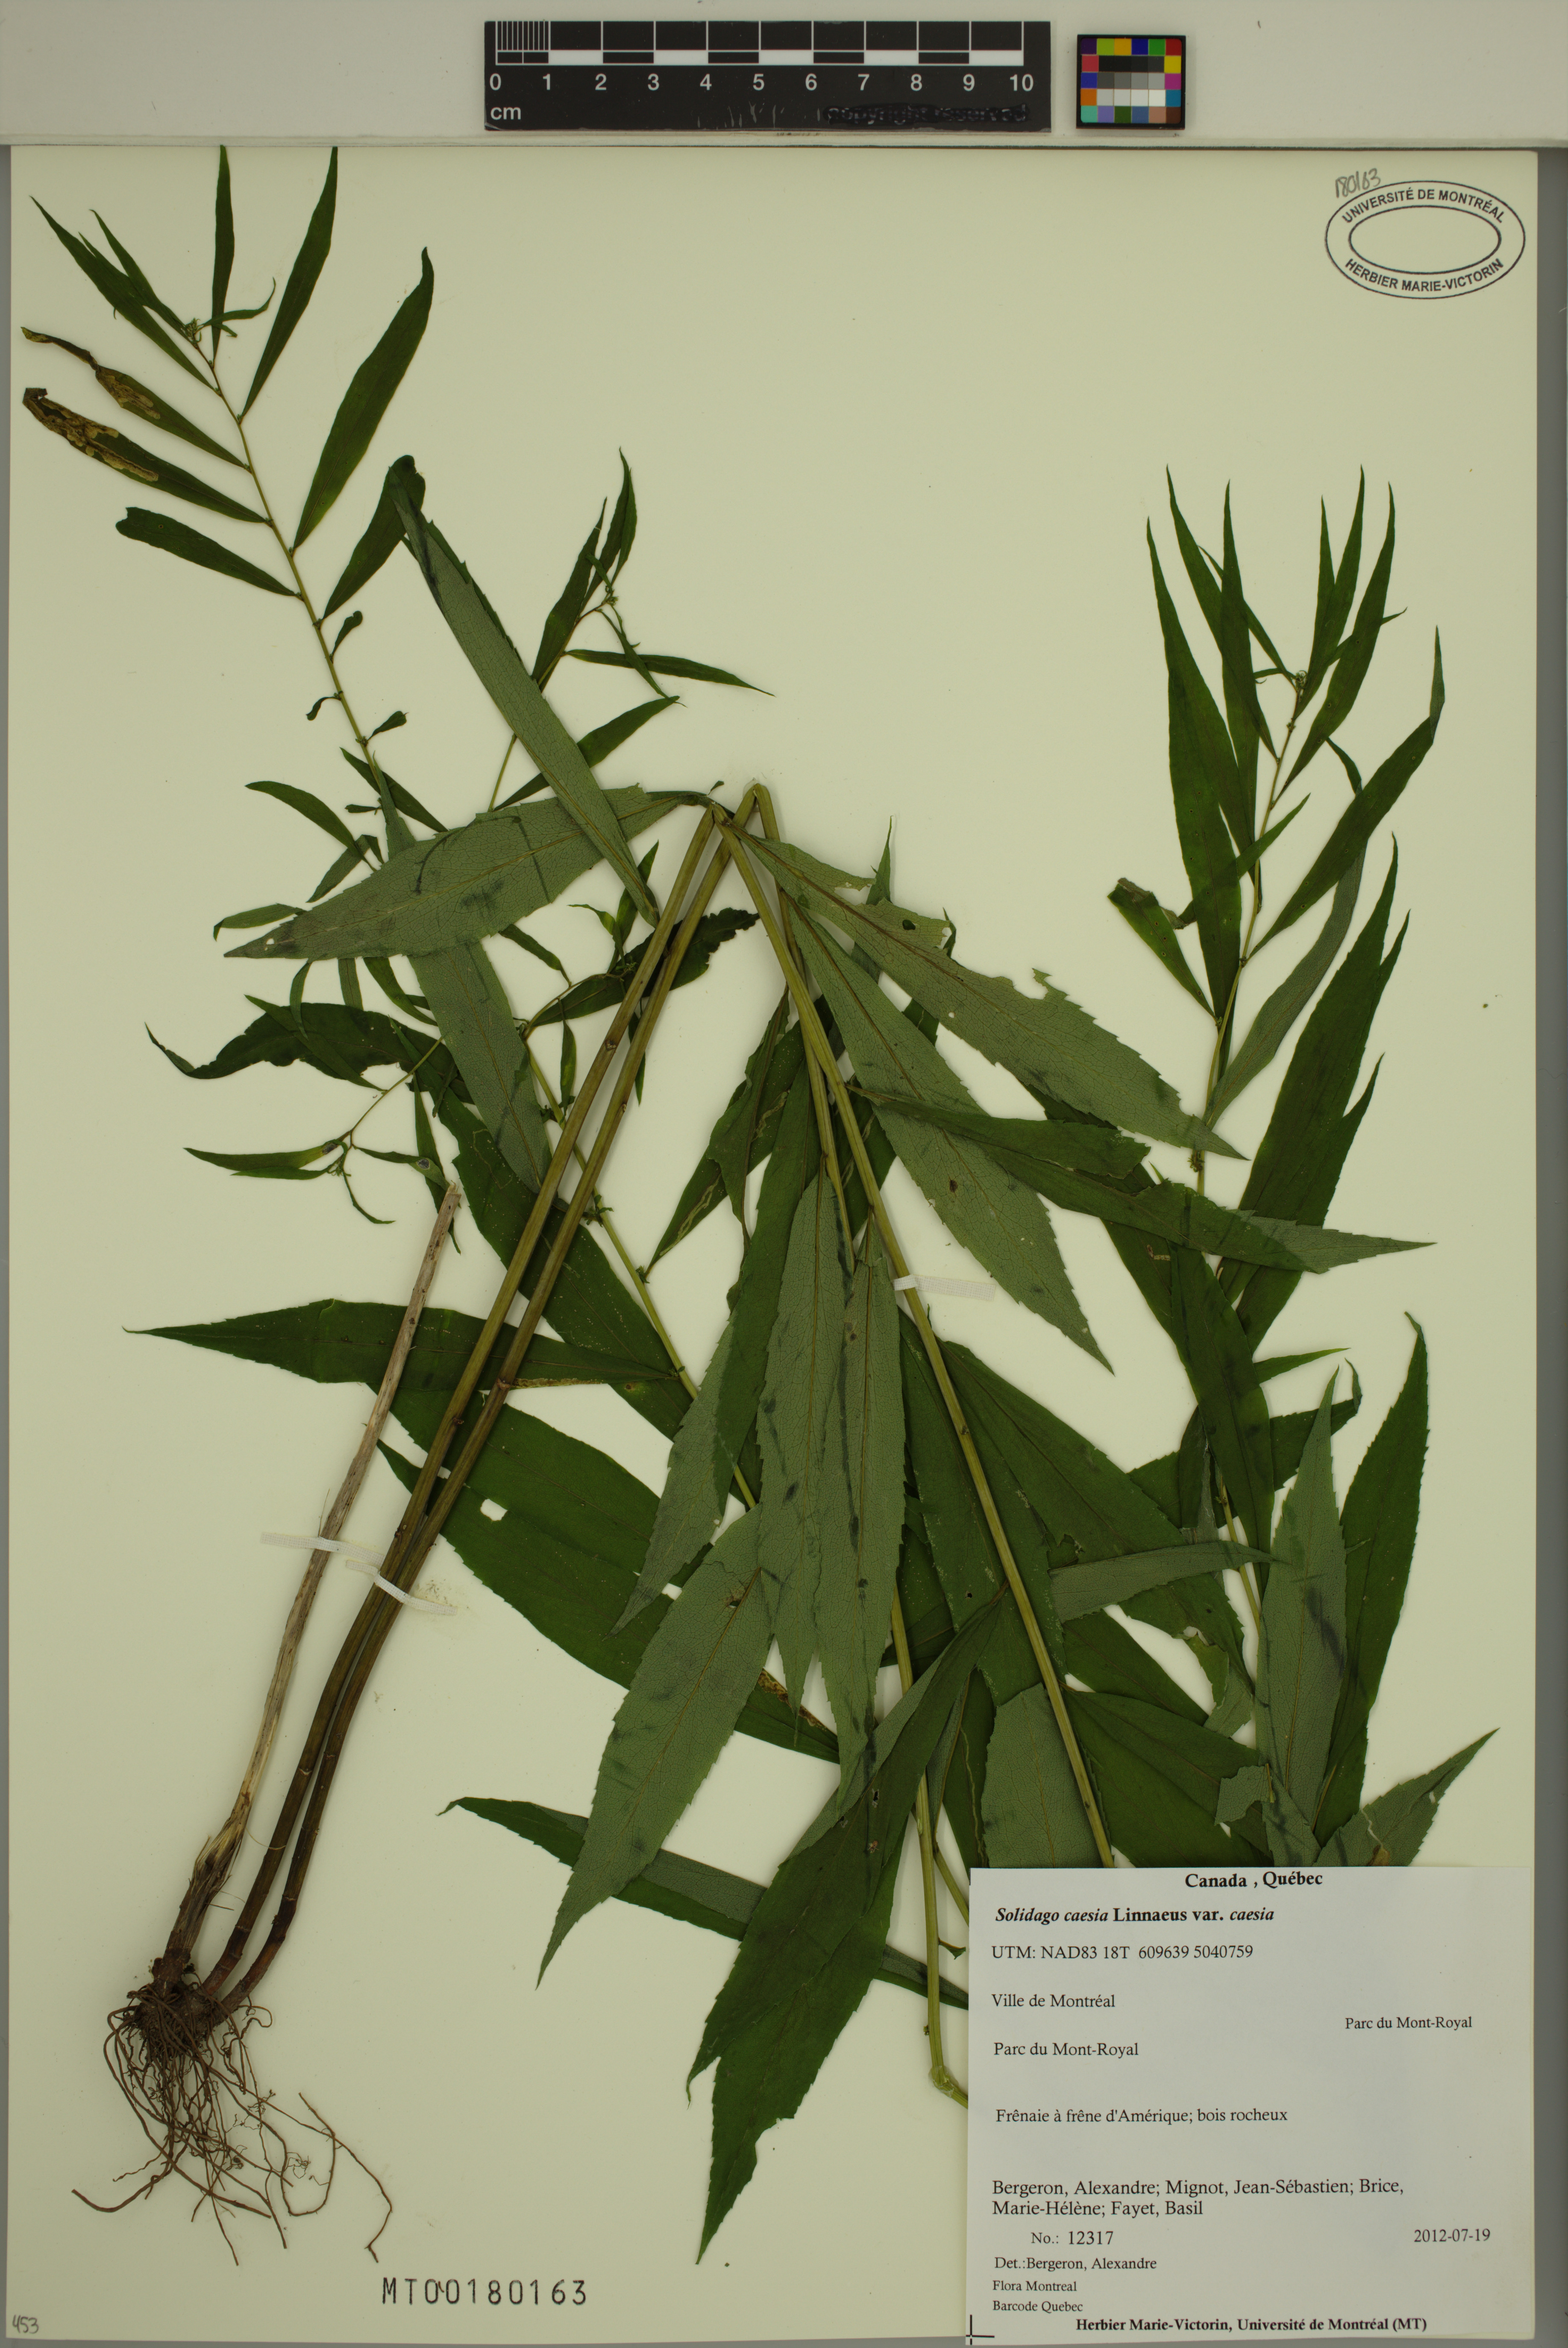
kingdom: Plantae
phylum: Tracheophyta
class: Magnoliopsida
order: Asterales
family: Asteraceae
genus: Solidago
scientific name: Solidago caesia
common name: Woodland goldenrod
